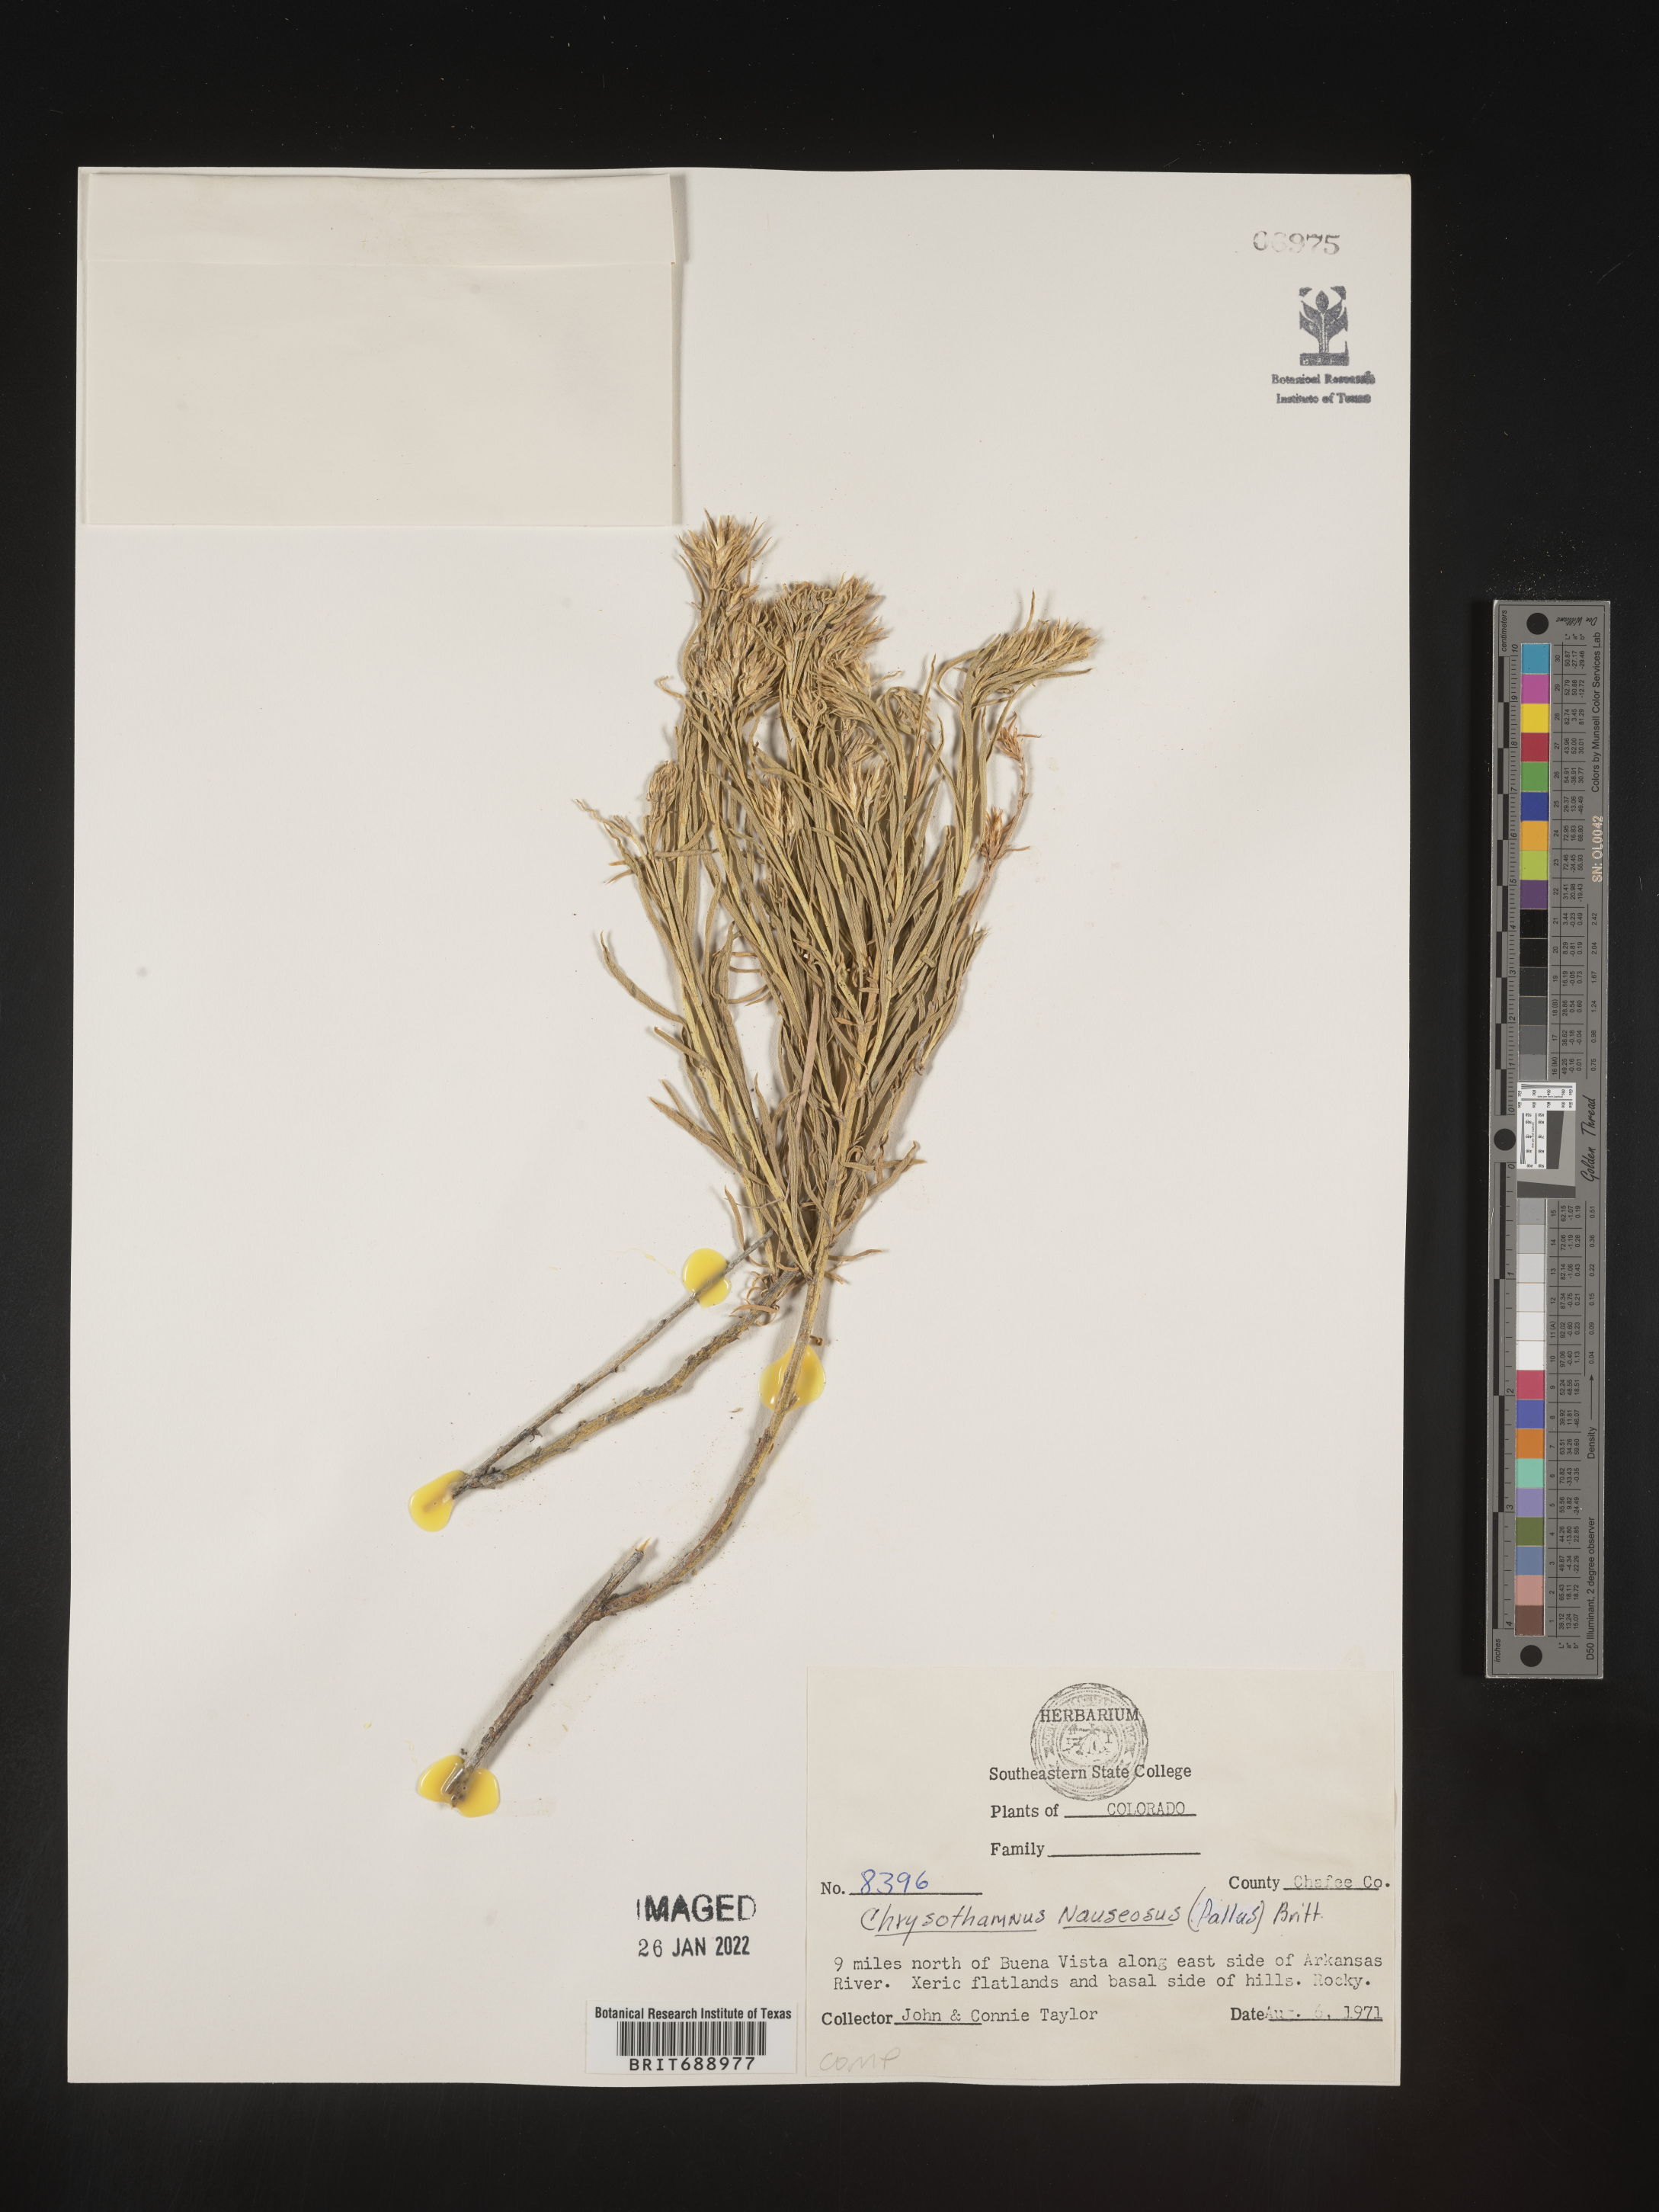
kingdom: Plantae
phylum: Tracheophyta
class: Magnoliopsida
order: Asterales
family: Asteraceae
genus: Ericameria
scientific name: Ericameria nauseosa
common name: Rubber rabbitbrush
